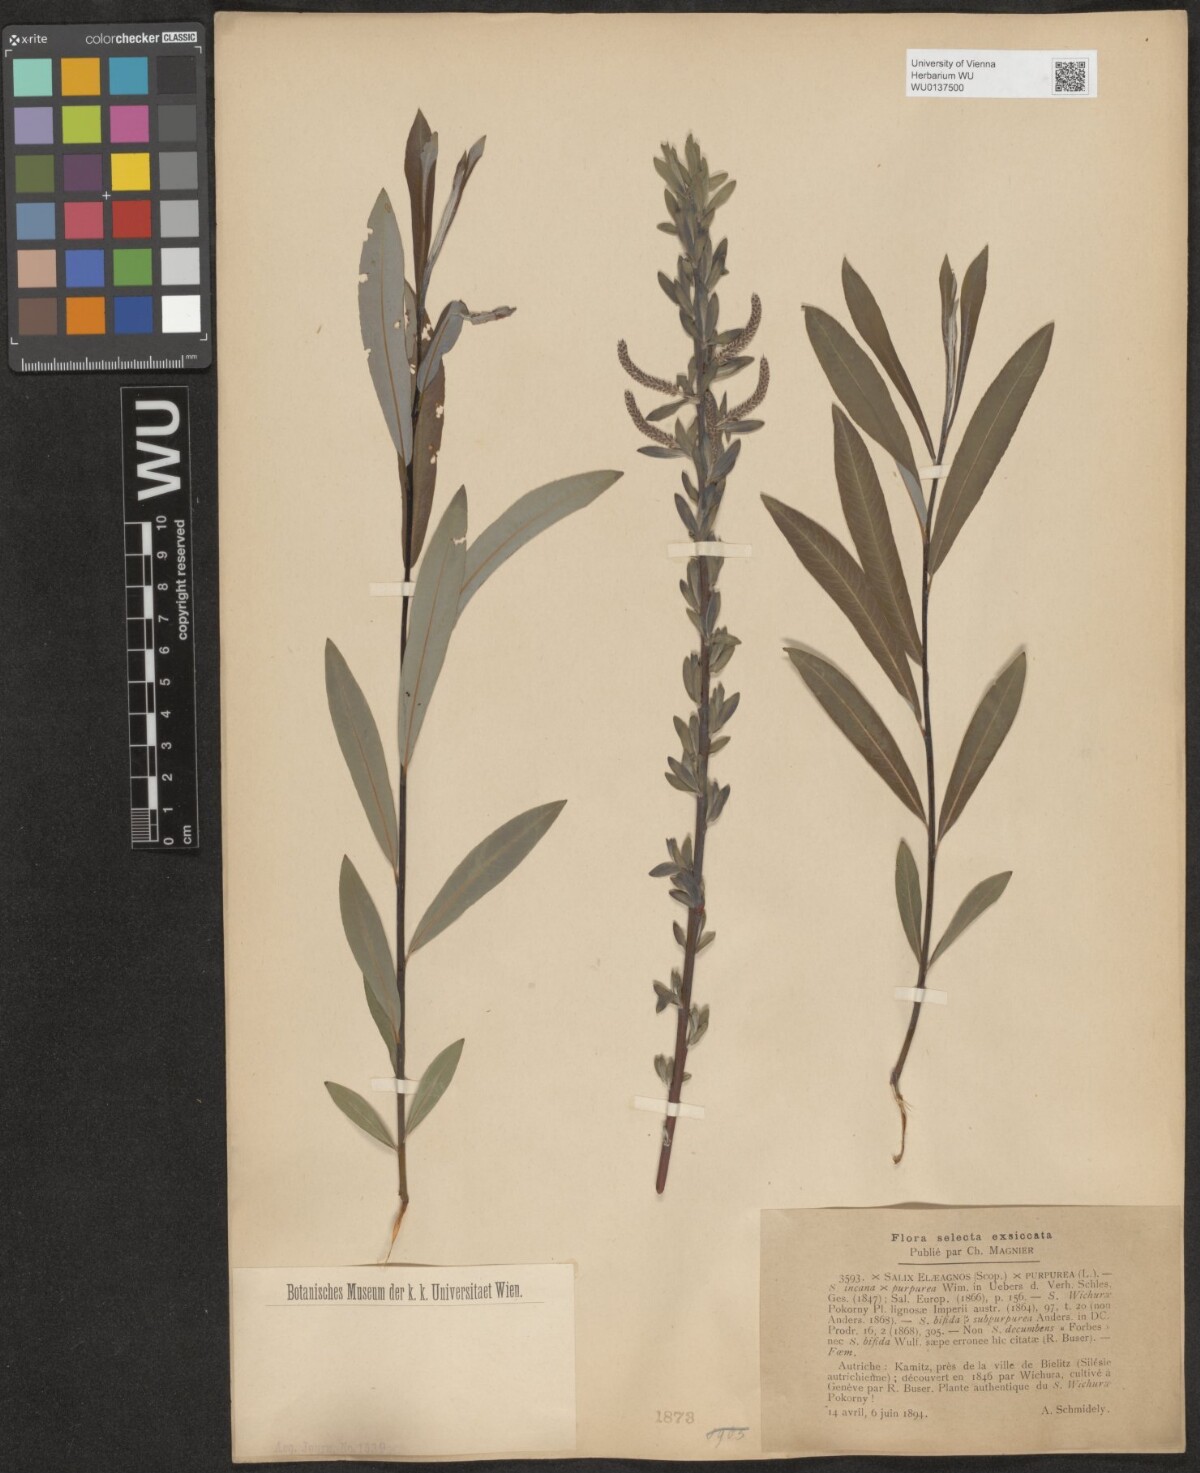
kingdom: Plantae
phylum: Tracheophyta
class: Magnoliopsida
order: Malpighiales
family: Salicaceae
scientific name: Salicaceae
